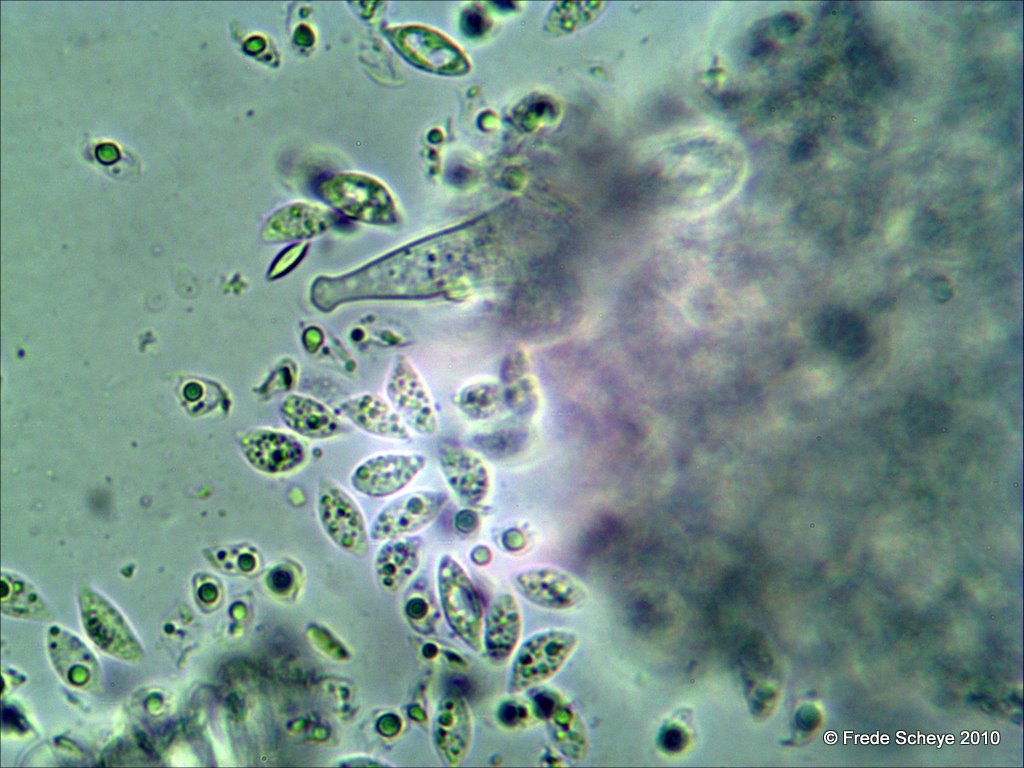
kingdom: Fungi
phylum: Basidiomycota
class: Agaricomycetes
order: Agaricales
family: Physalacriaceae
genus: Rhizomarasmius
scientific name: Rhizomarasmius setosus
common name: bøgeblads-bruskhat
